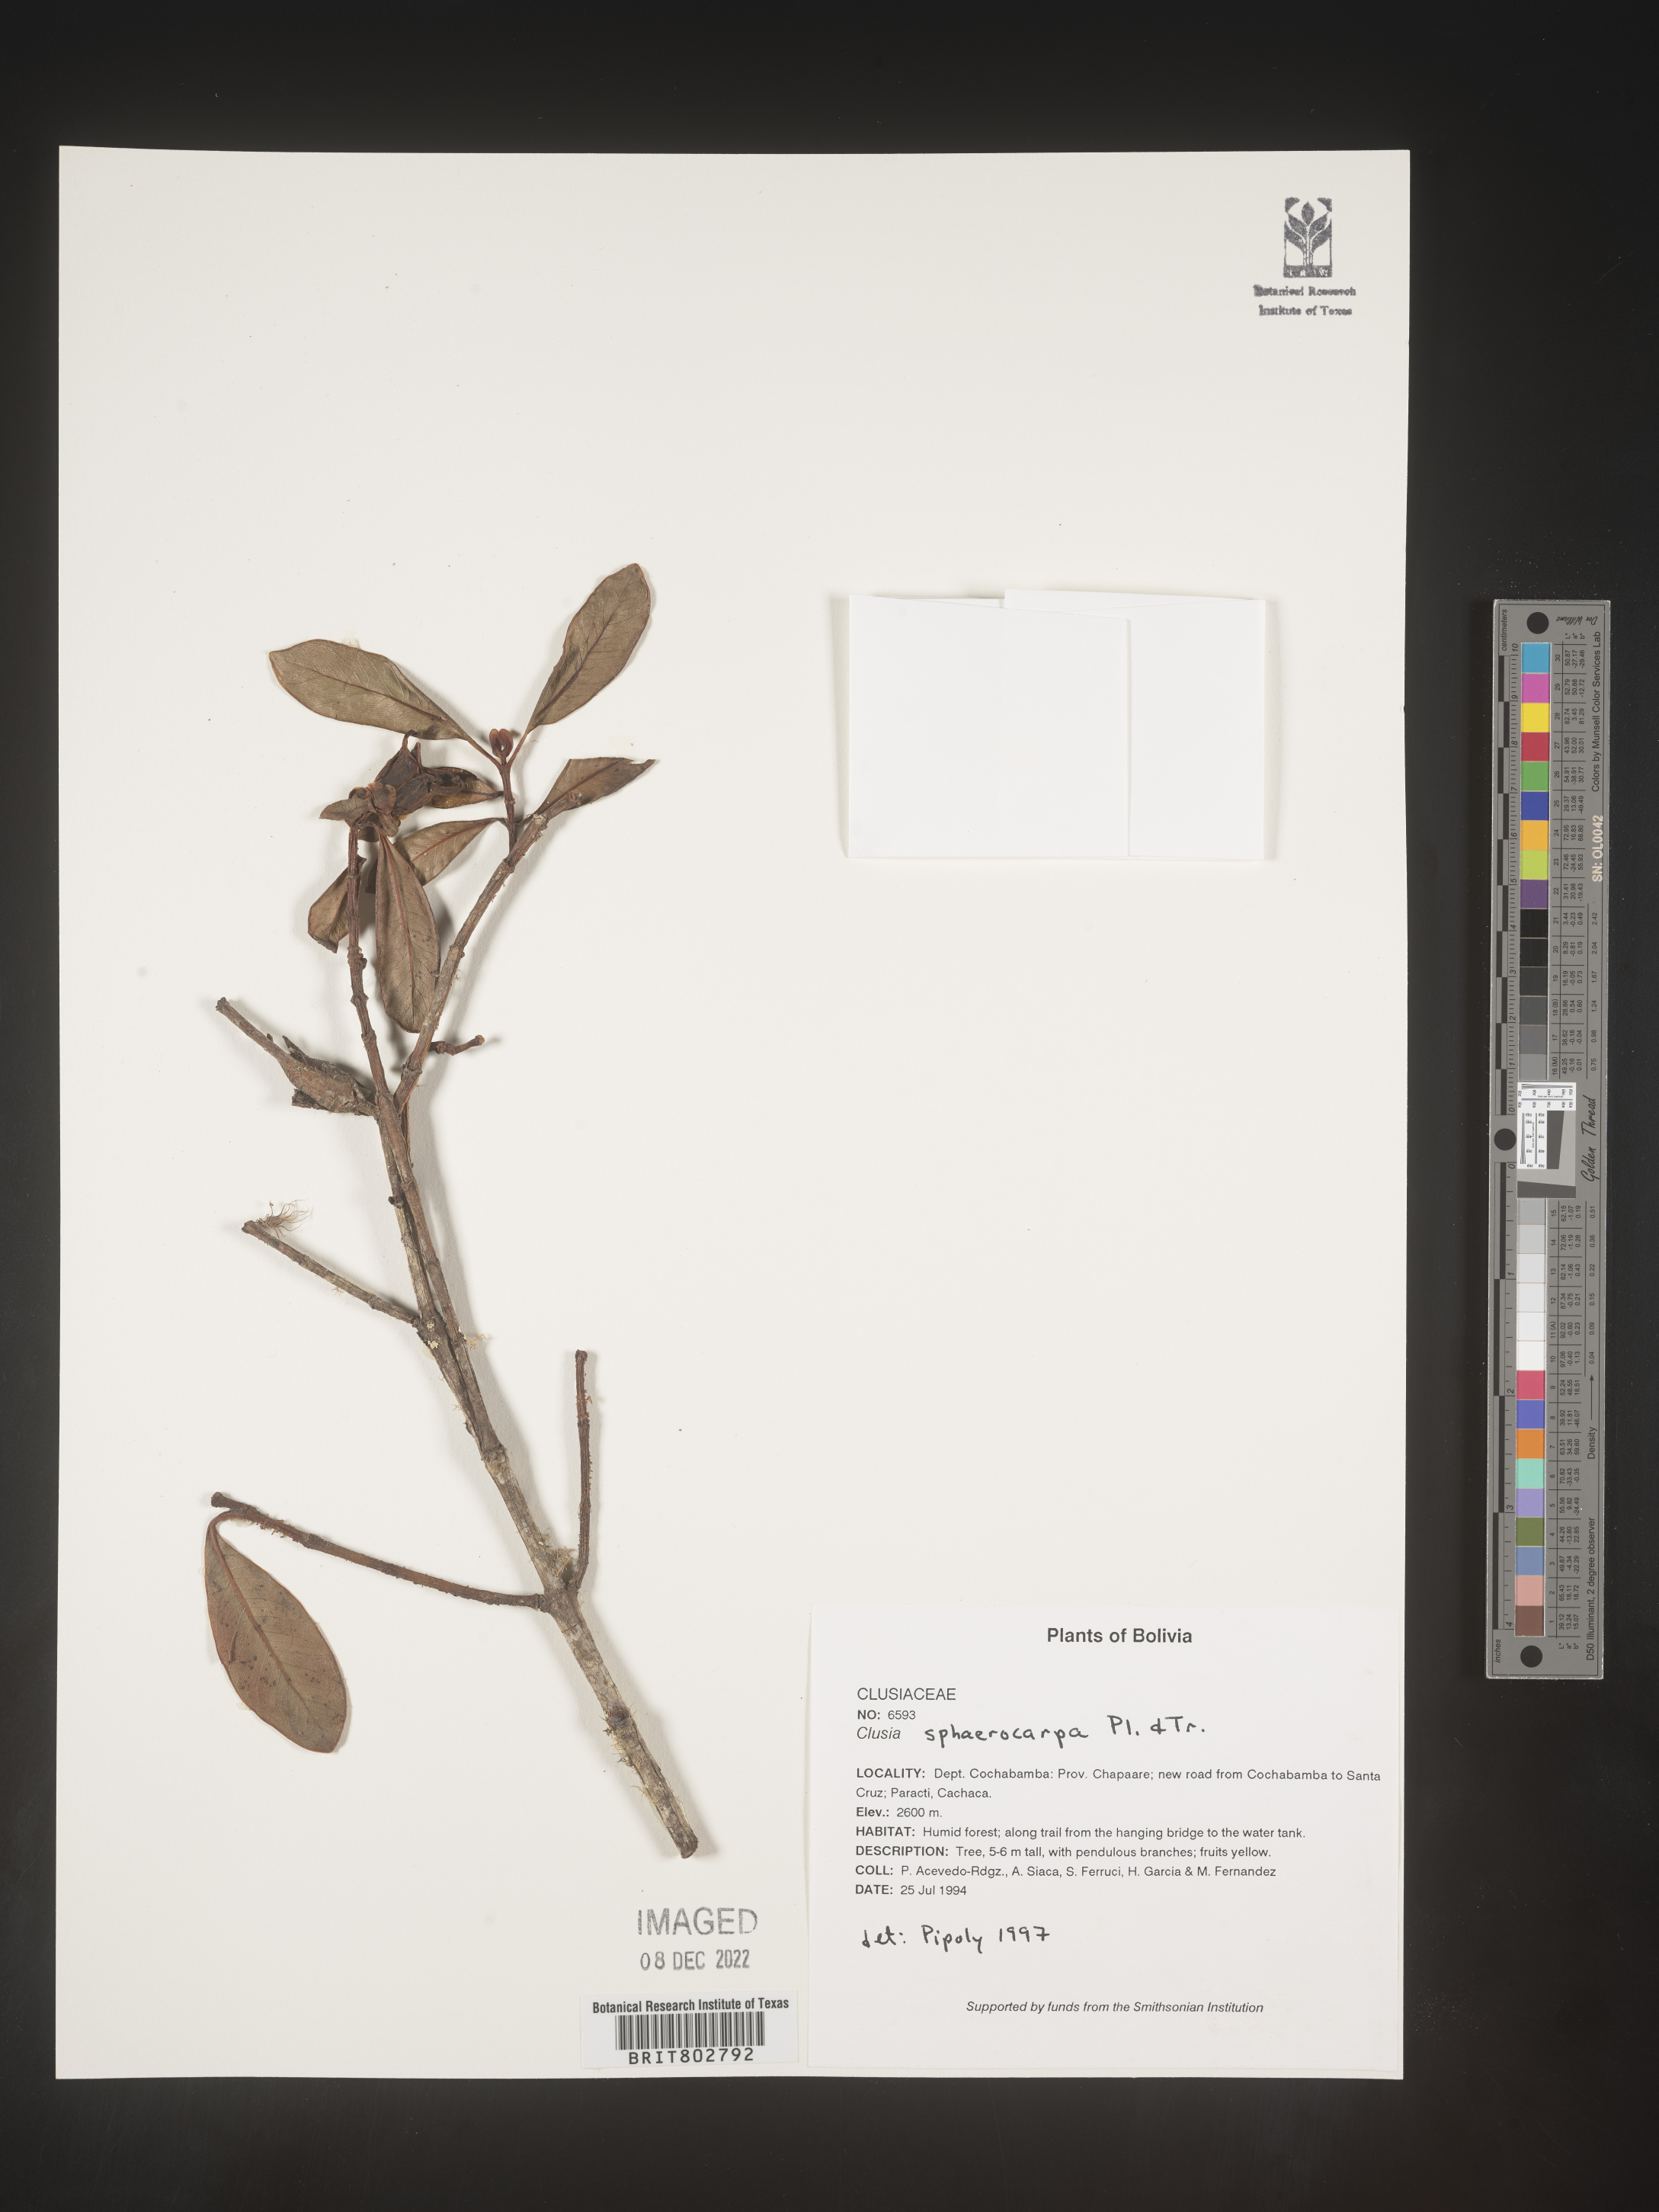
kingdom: Plantae
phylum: Tracheophyta
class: Magnoliopsida
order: Malpighiales
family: Clusiaceae
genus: Clusia
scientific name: Clusia sphaerocarpa
